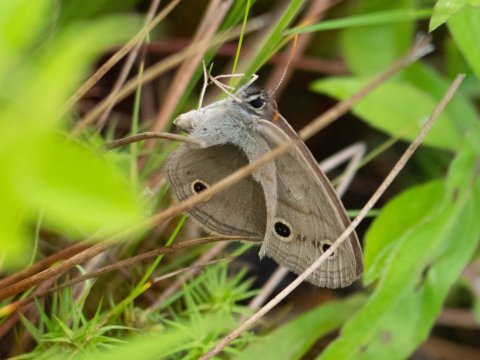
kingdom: Animalia
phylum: Arthropoda
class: Insecta
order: Lepidoptera
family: Nymphalidae
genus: Euptychia
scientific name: Euptychia cymela
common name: Little Wood Satyr
